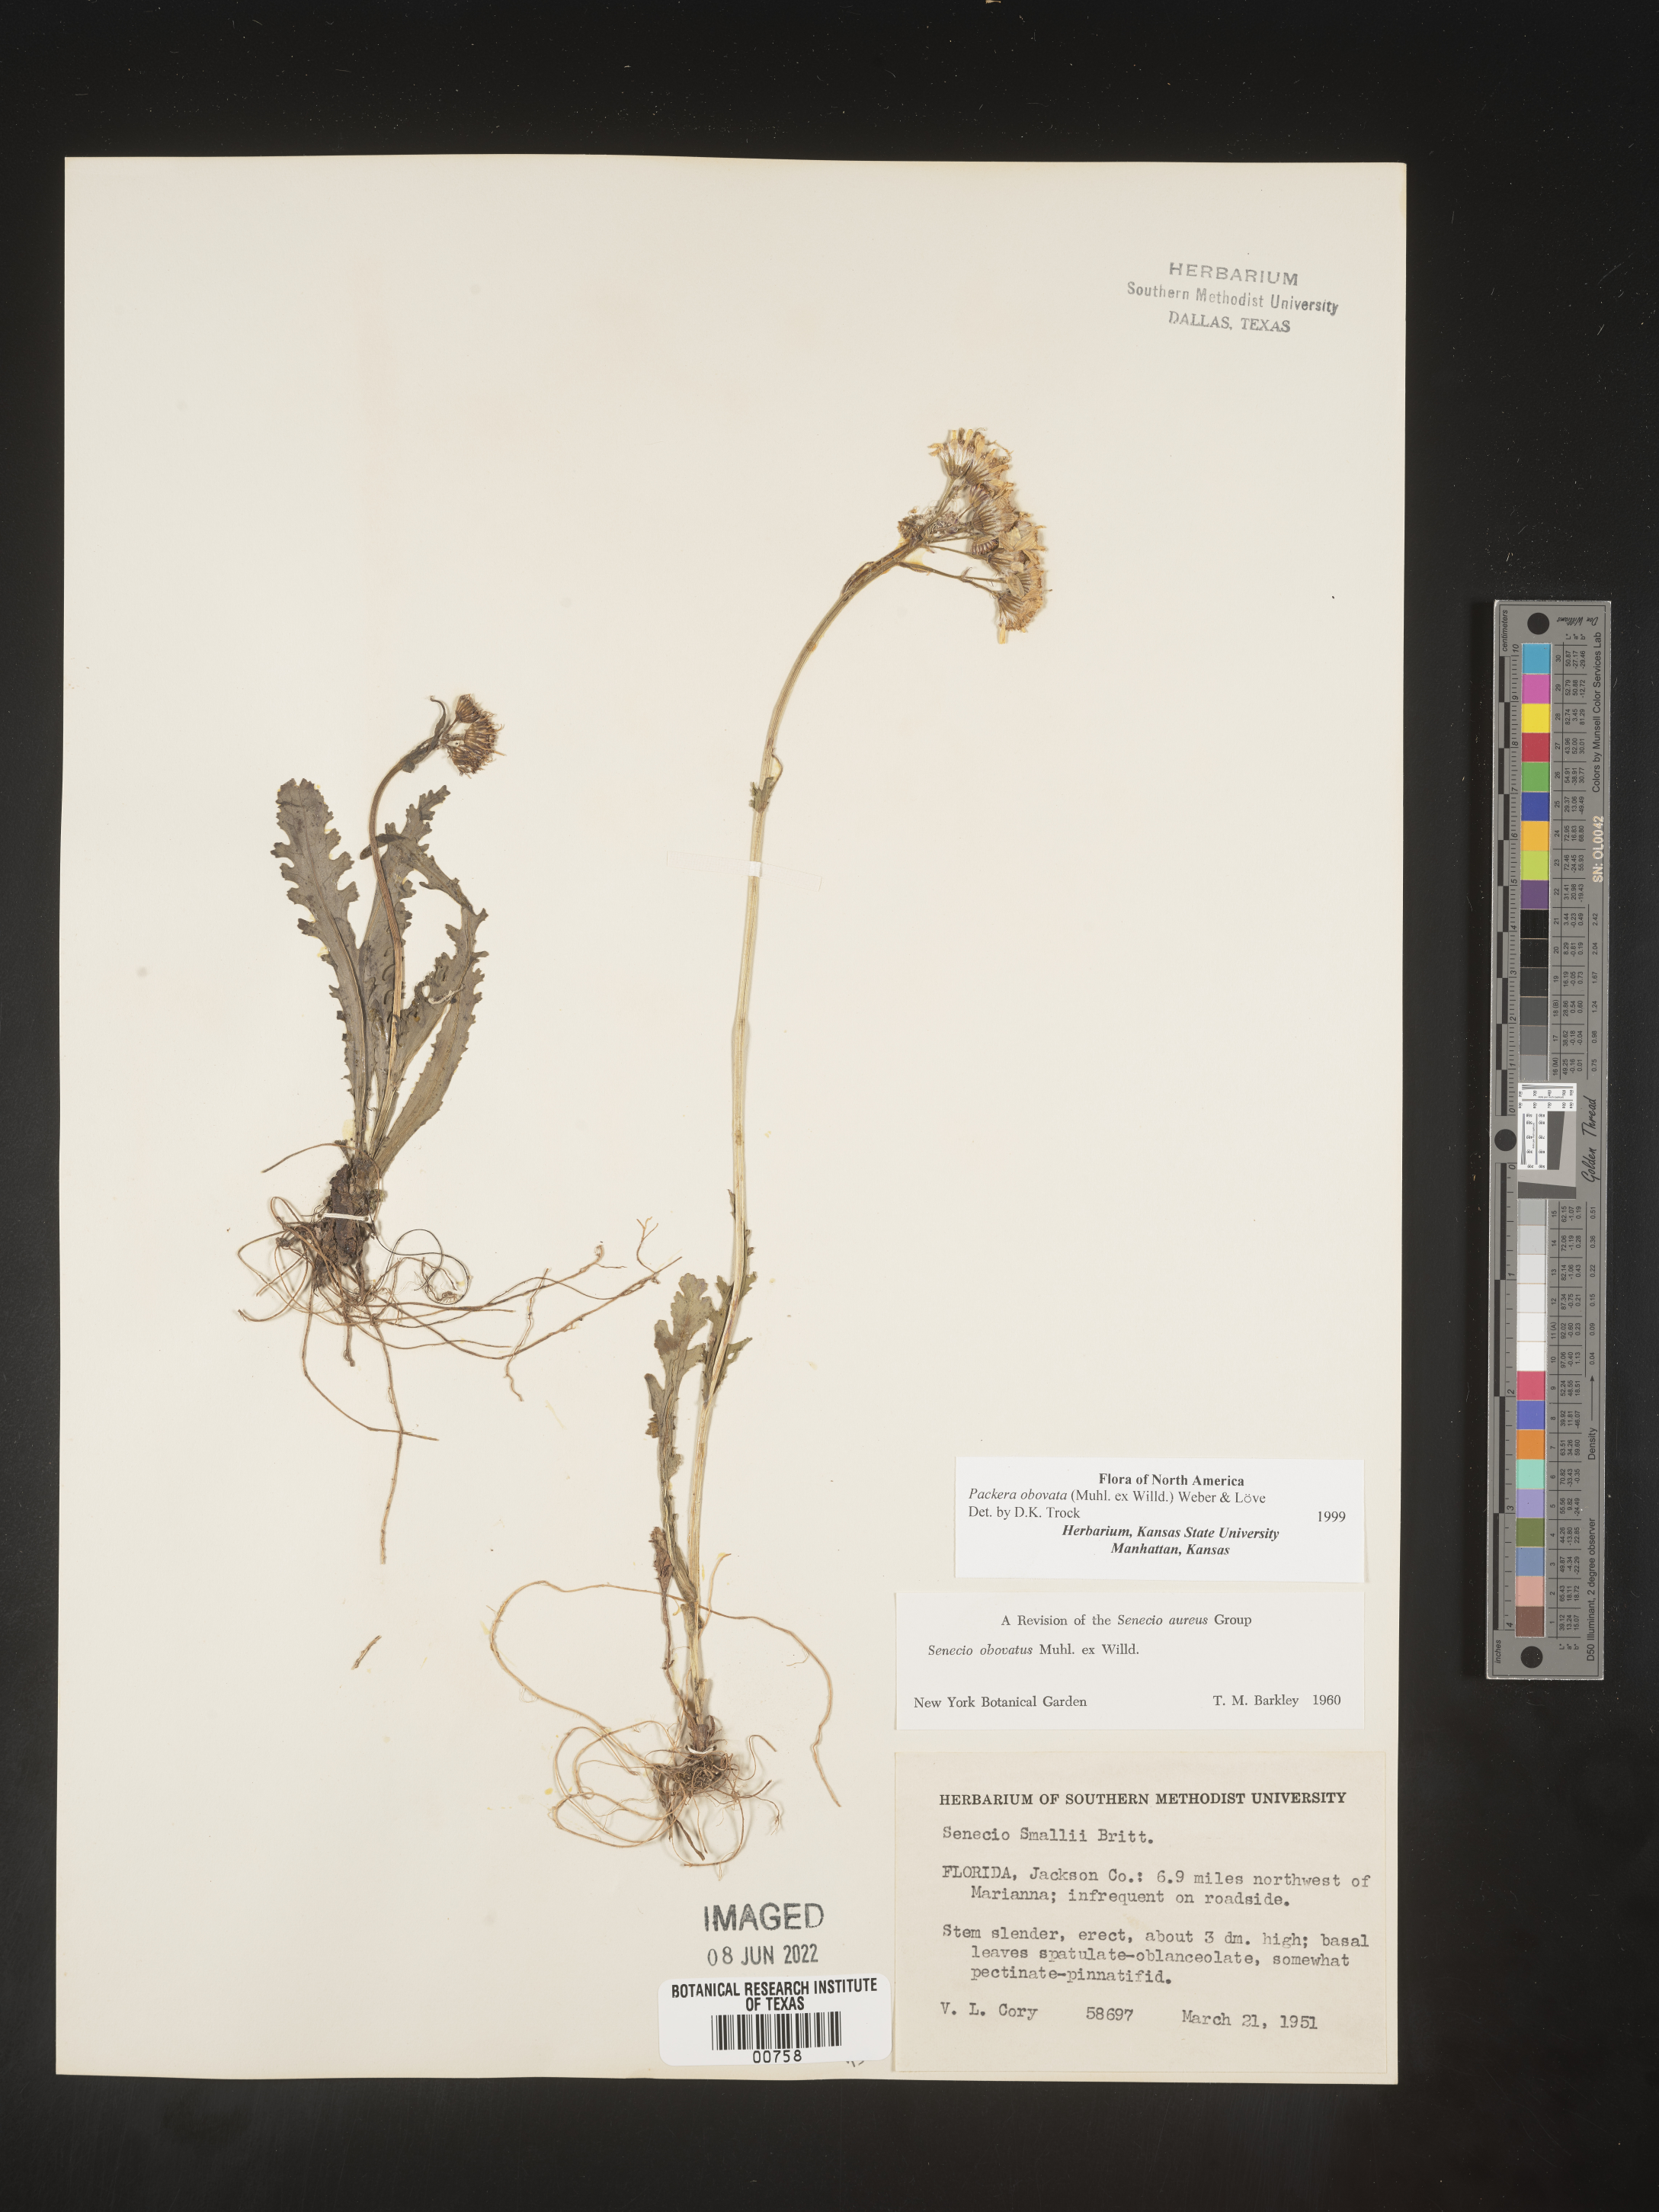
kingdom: Plantae
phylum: Tracheophyta
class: Magnoliopsida
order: Asterales
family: Asteraceae
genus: Packera
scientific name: Packera obovata
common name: Round-leaf ragwort
